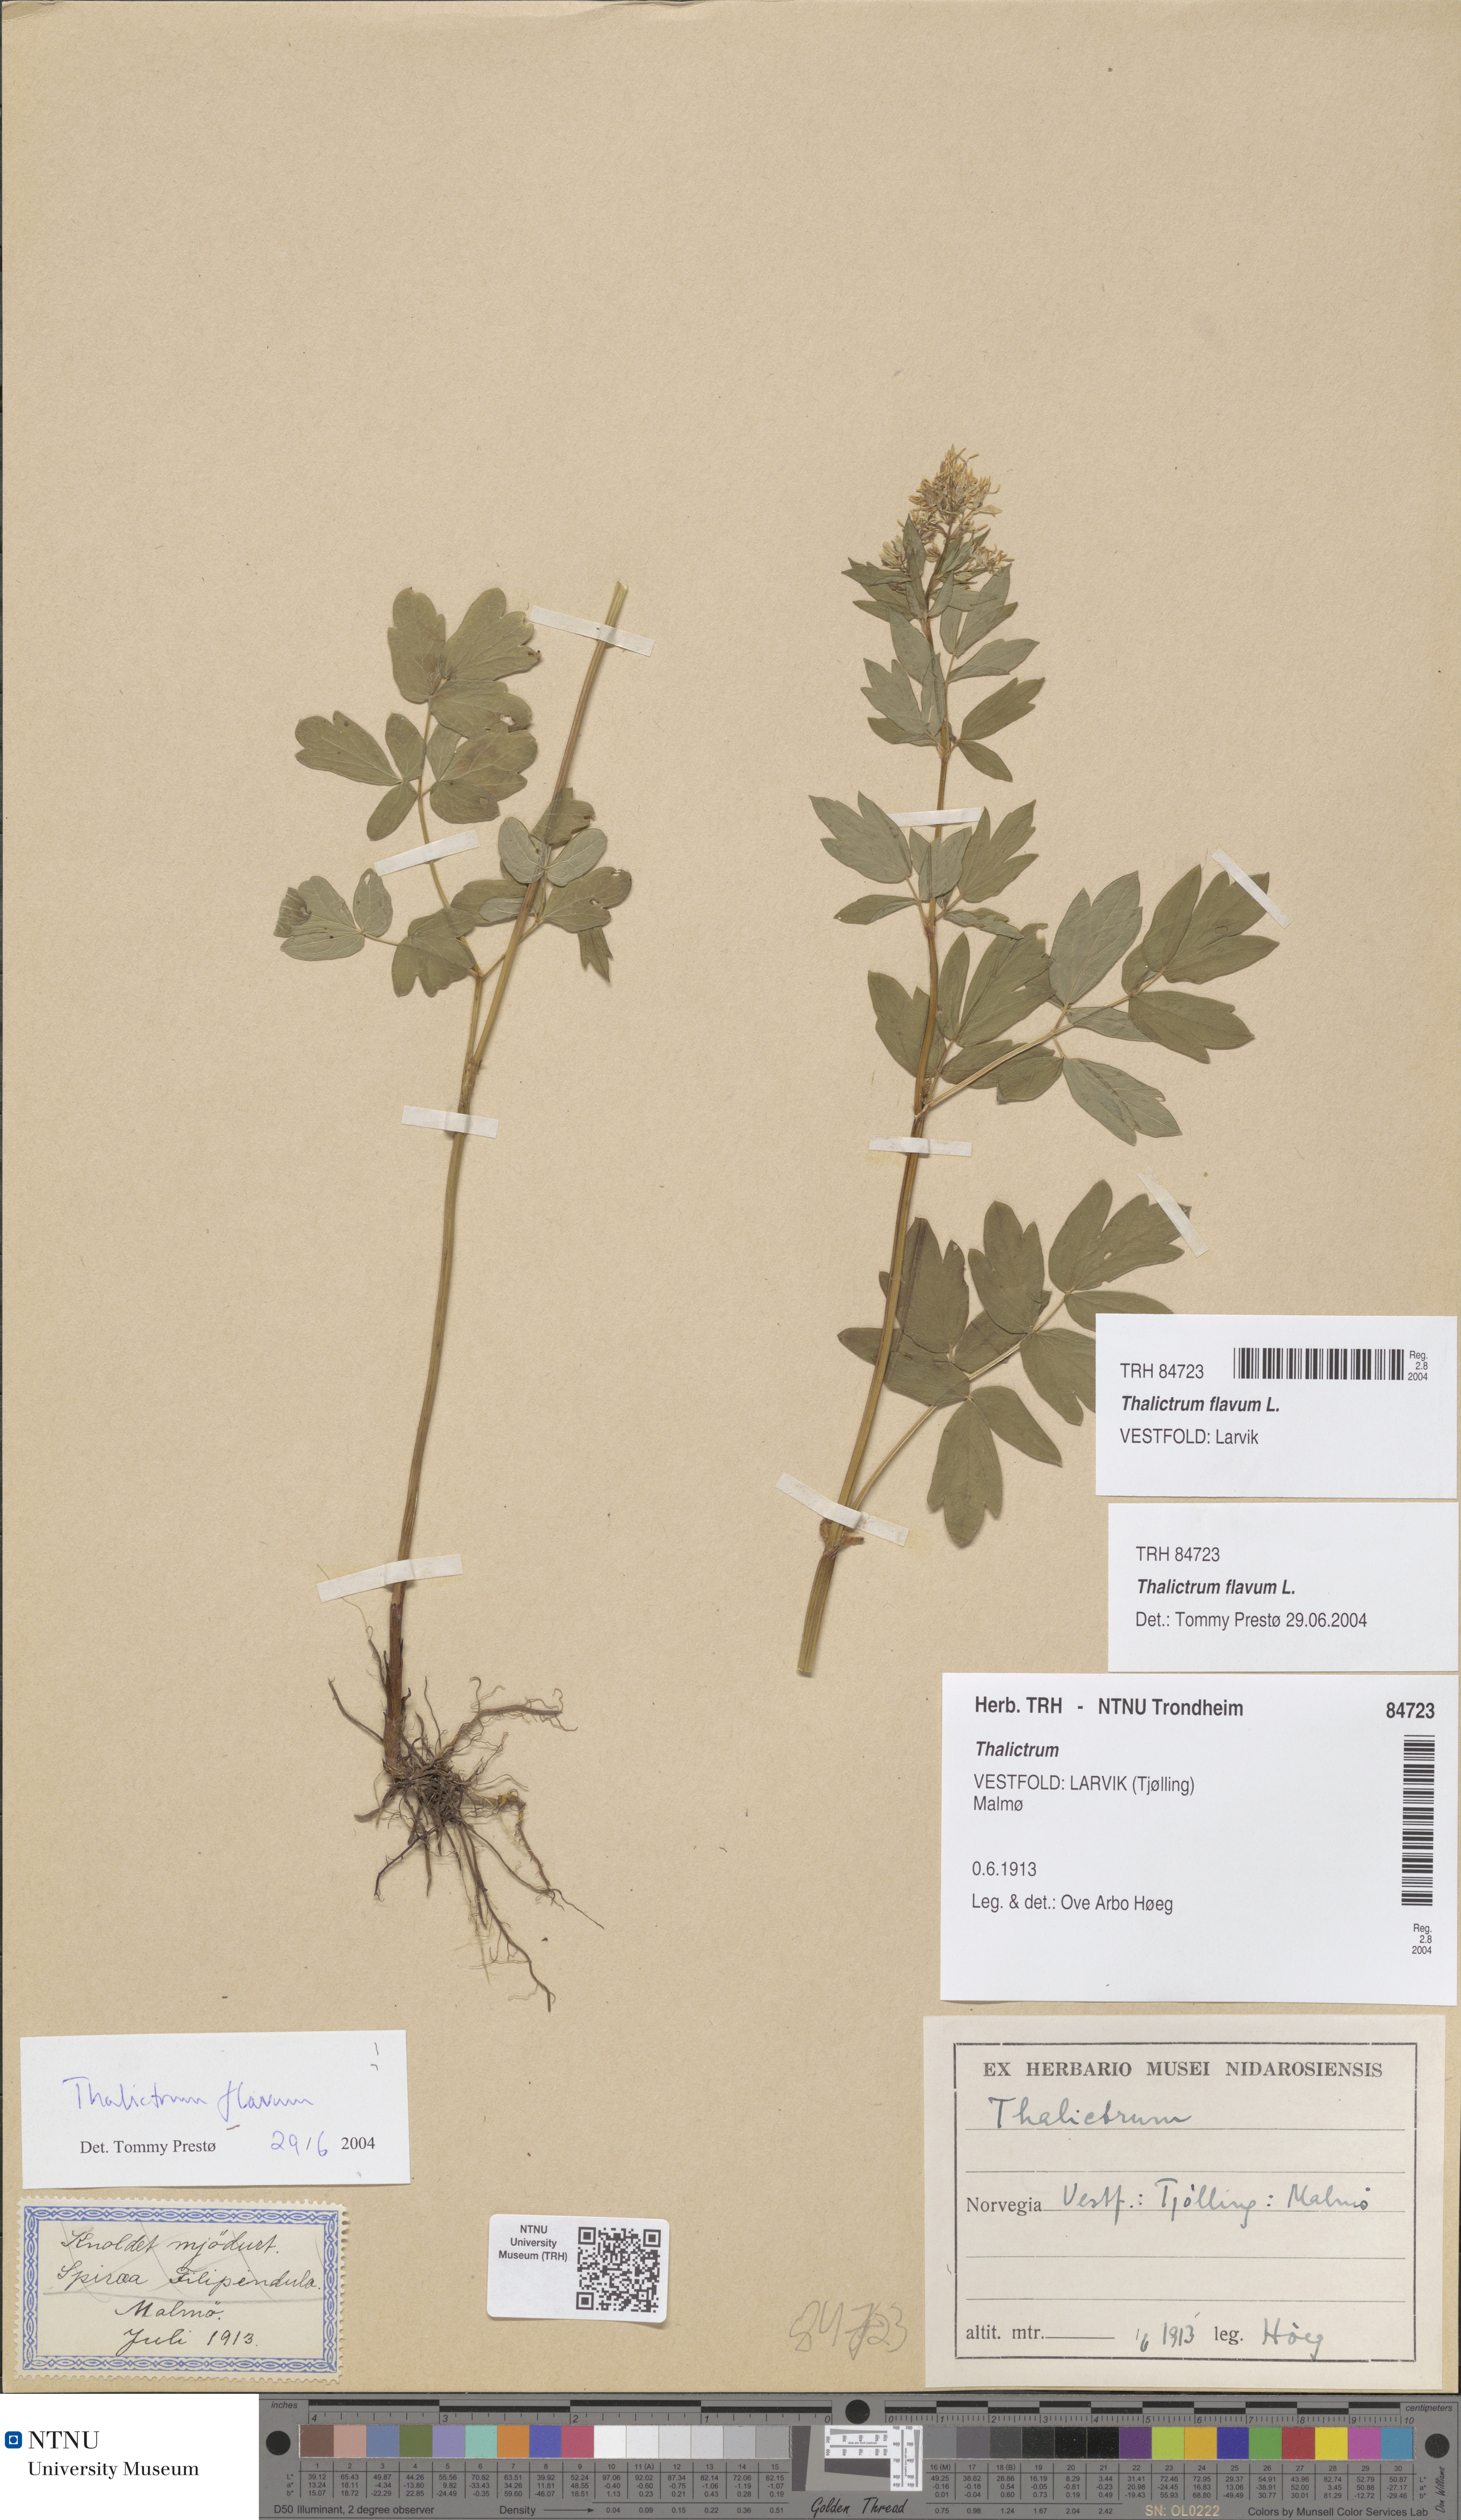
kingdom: Plantae
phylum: Tracheophyta
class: Magnoliopsida
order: Ranunculales
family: Ranunculaceae
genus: Thalictrum
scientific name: Thalictrum flavum
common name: Common meadow-rue
